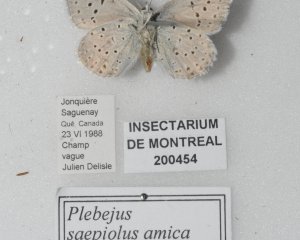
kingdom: Animalia
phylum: Arthropoda
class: Insecta
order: Lepidoptera
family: Lycaenidae
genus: Plebejus
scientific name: Plebejus saepiolus
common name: Greenish Blue
